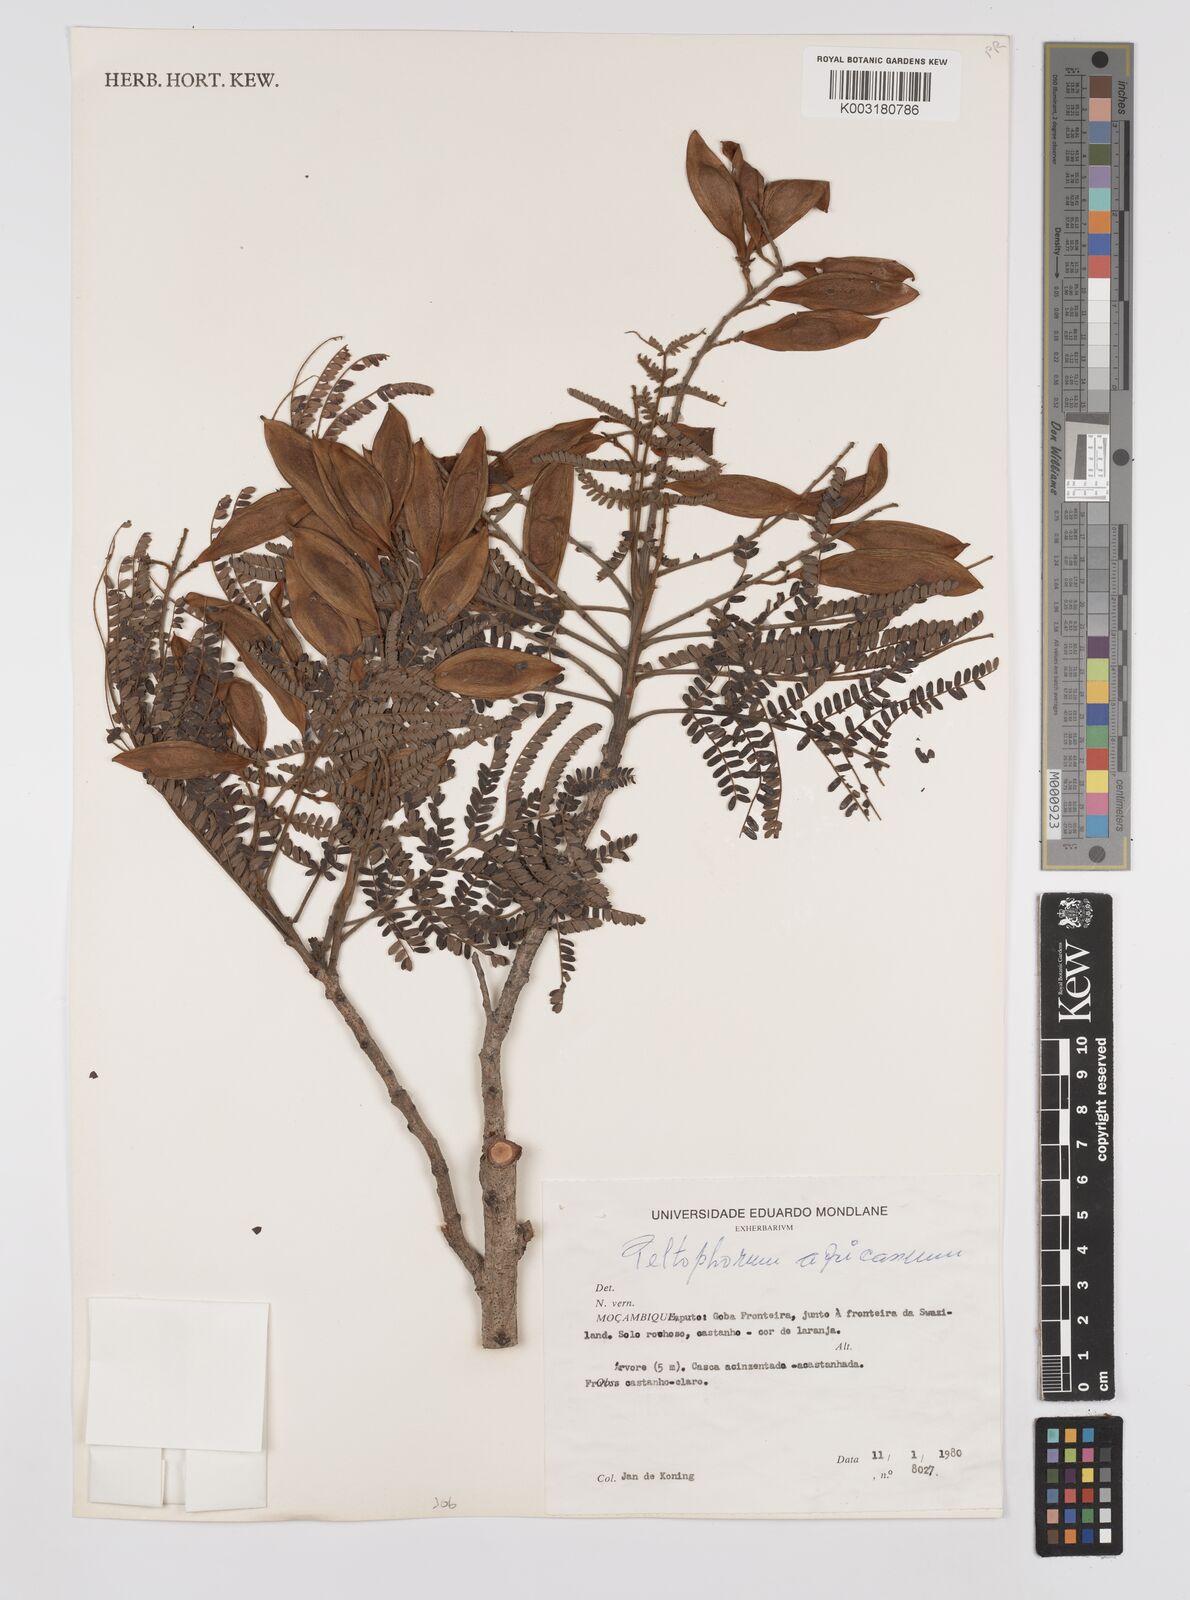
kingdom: Plantae
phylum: Tracheophyta
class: Magnoliopsida
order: Fabales
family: Fabaceae
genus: Peltophorum
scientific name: Peltophorum africanum
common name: African black wattle
